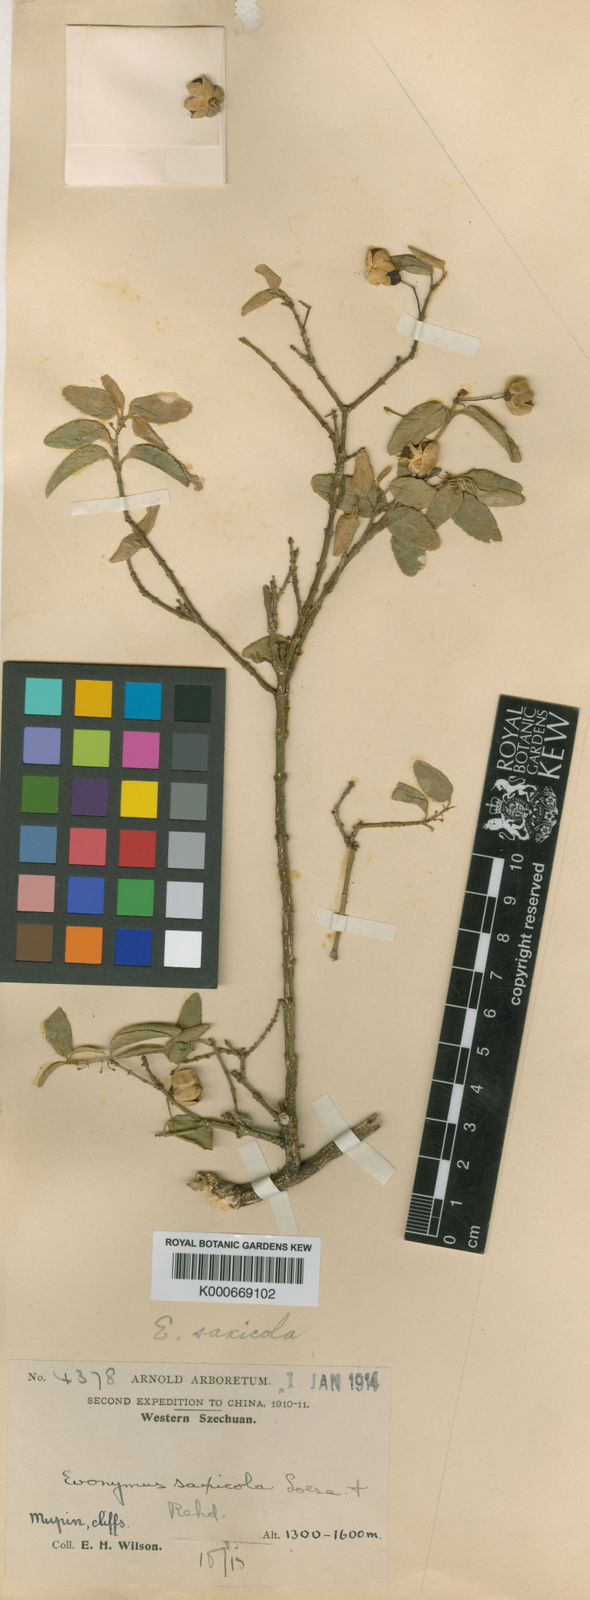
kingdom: Plantae
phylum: Tracheophyta
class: Magnoliopsida
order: Celastrales
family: Celastraceae
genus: Euonymus
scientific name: Euonymus viburnoides
